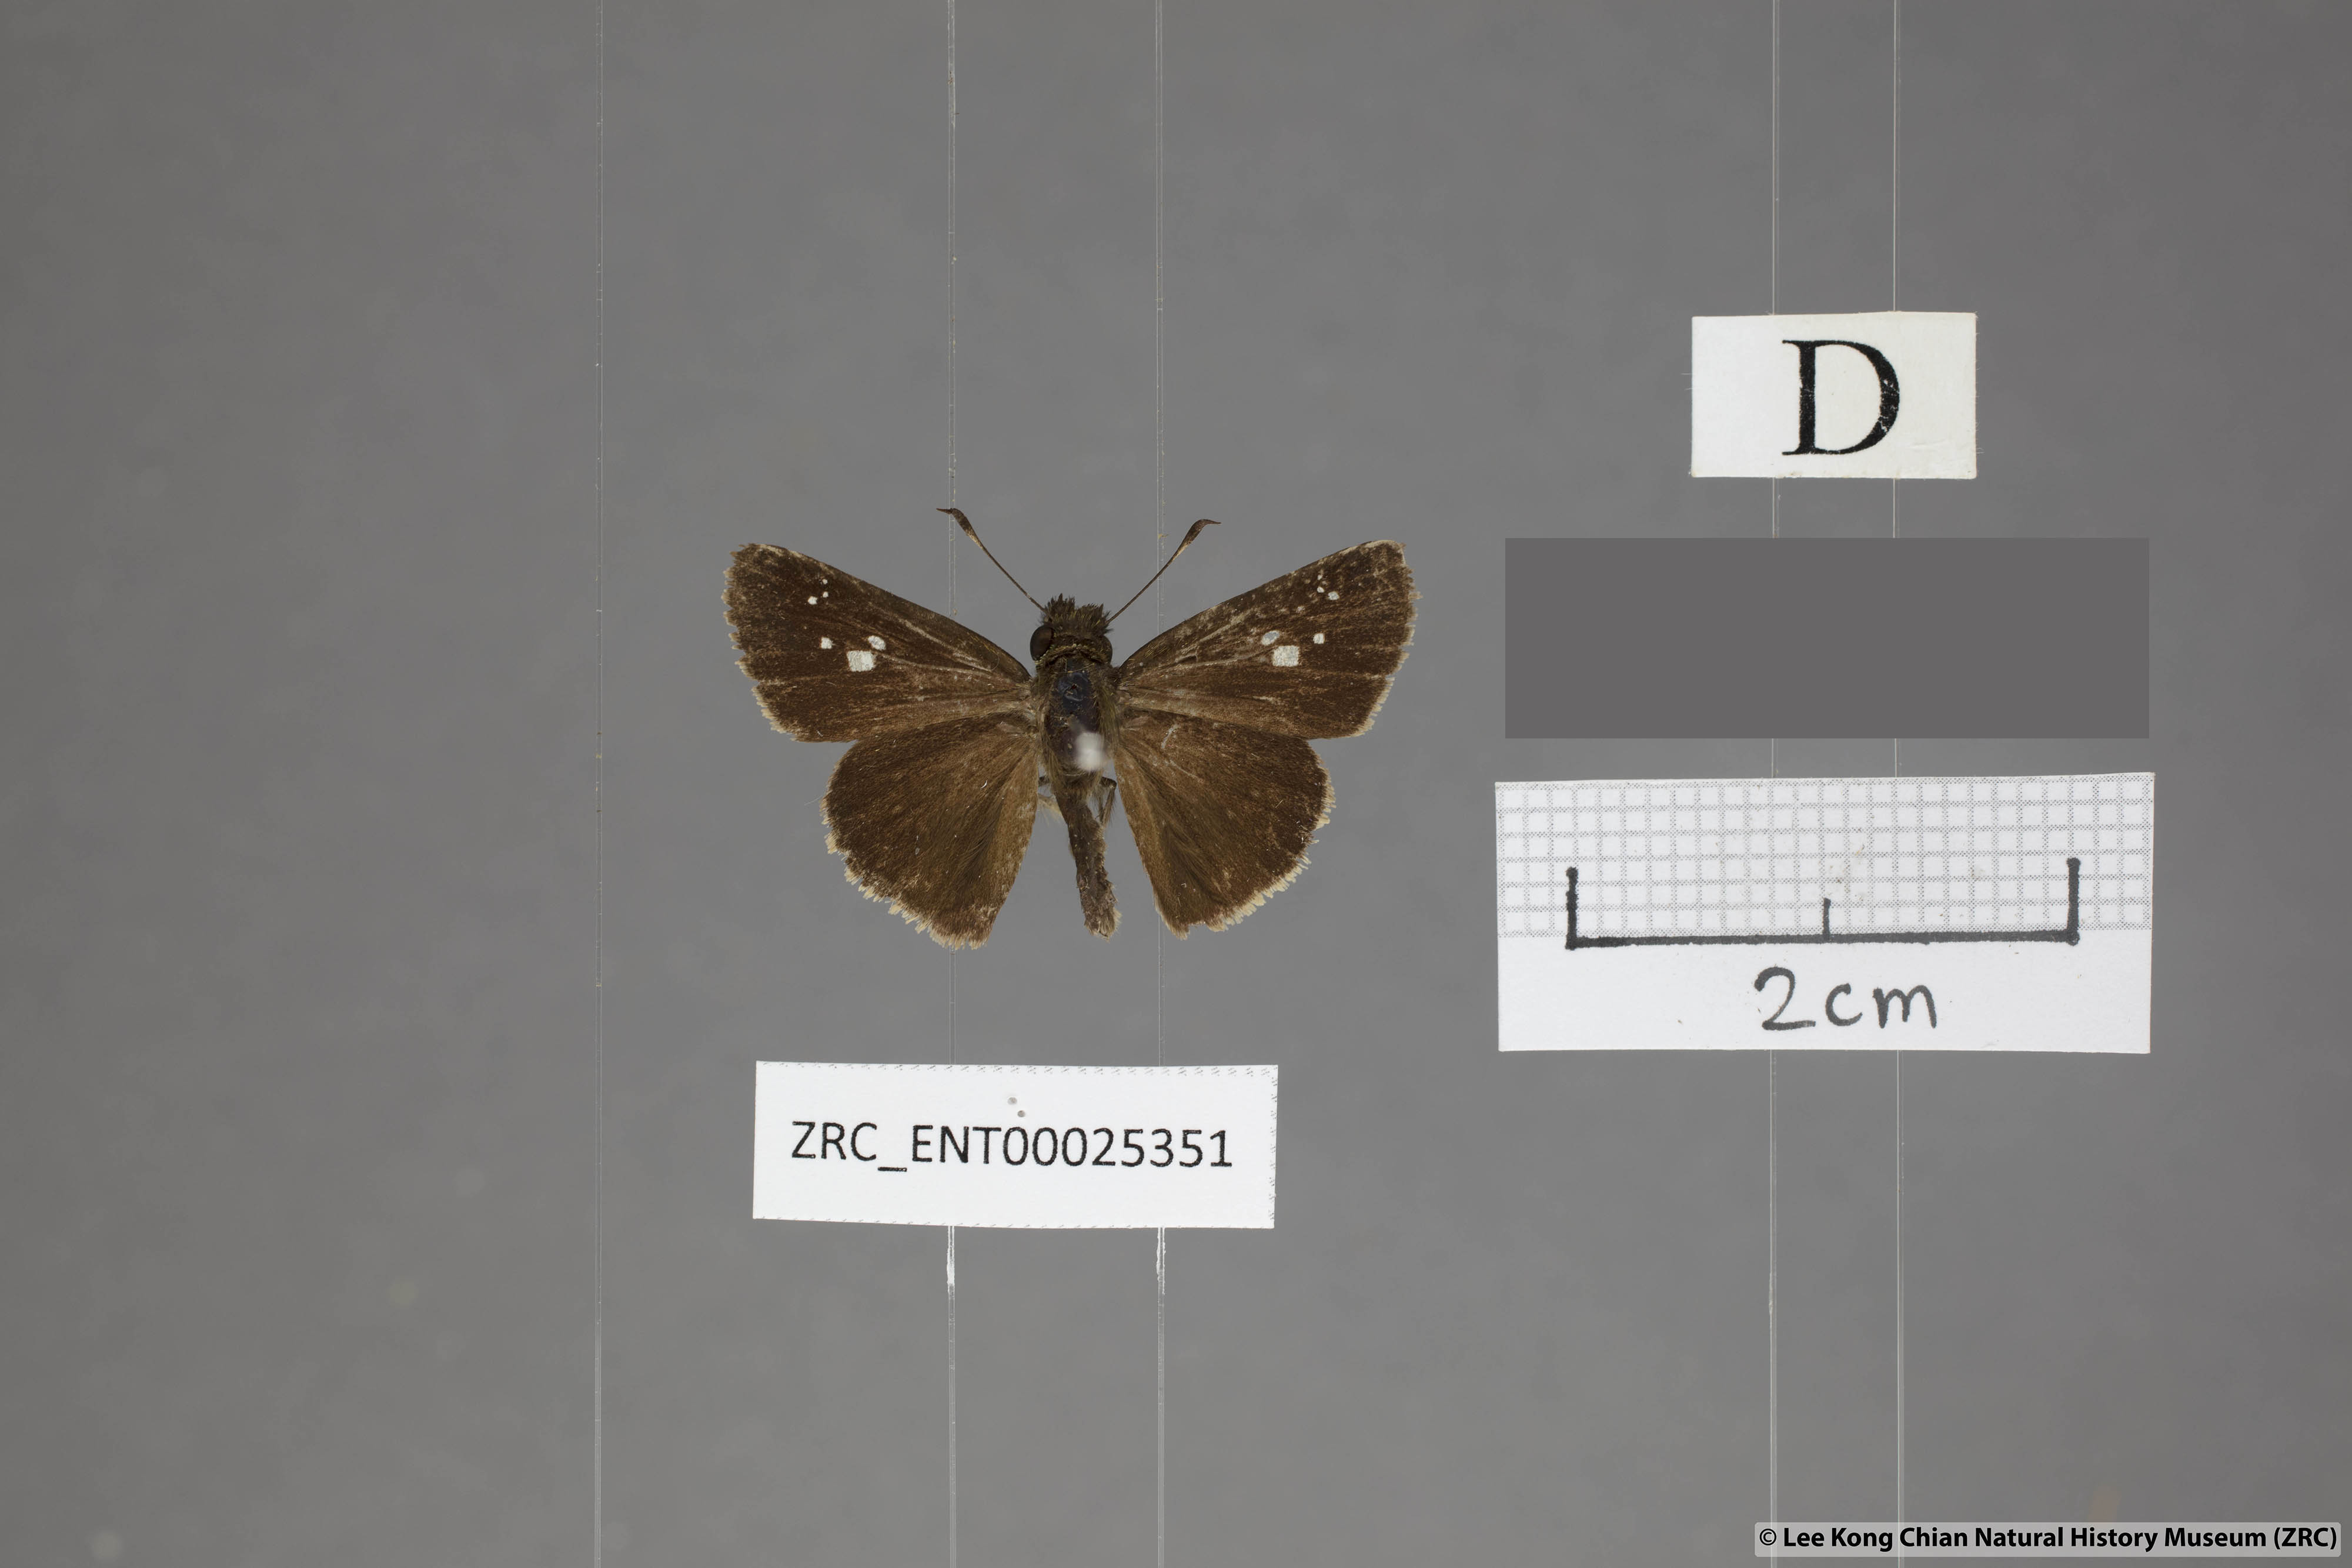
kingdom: Animalia
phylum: Arthropoda
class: Insecta
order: Lepidoptera
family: Hesperiidae
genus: Polytremis
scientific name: Polytremis minuta
